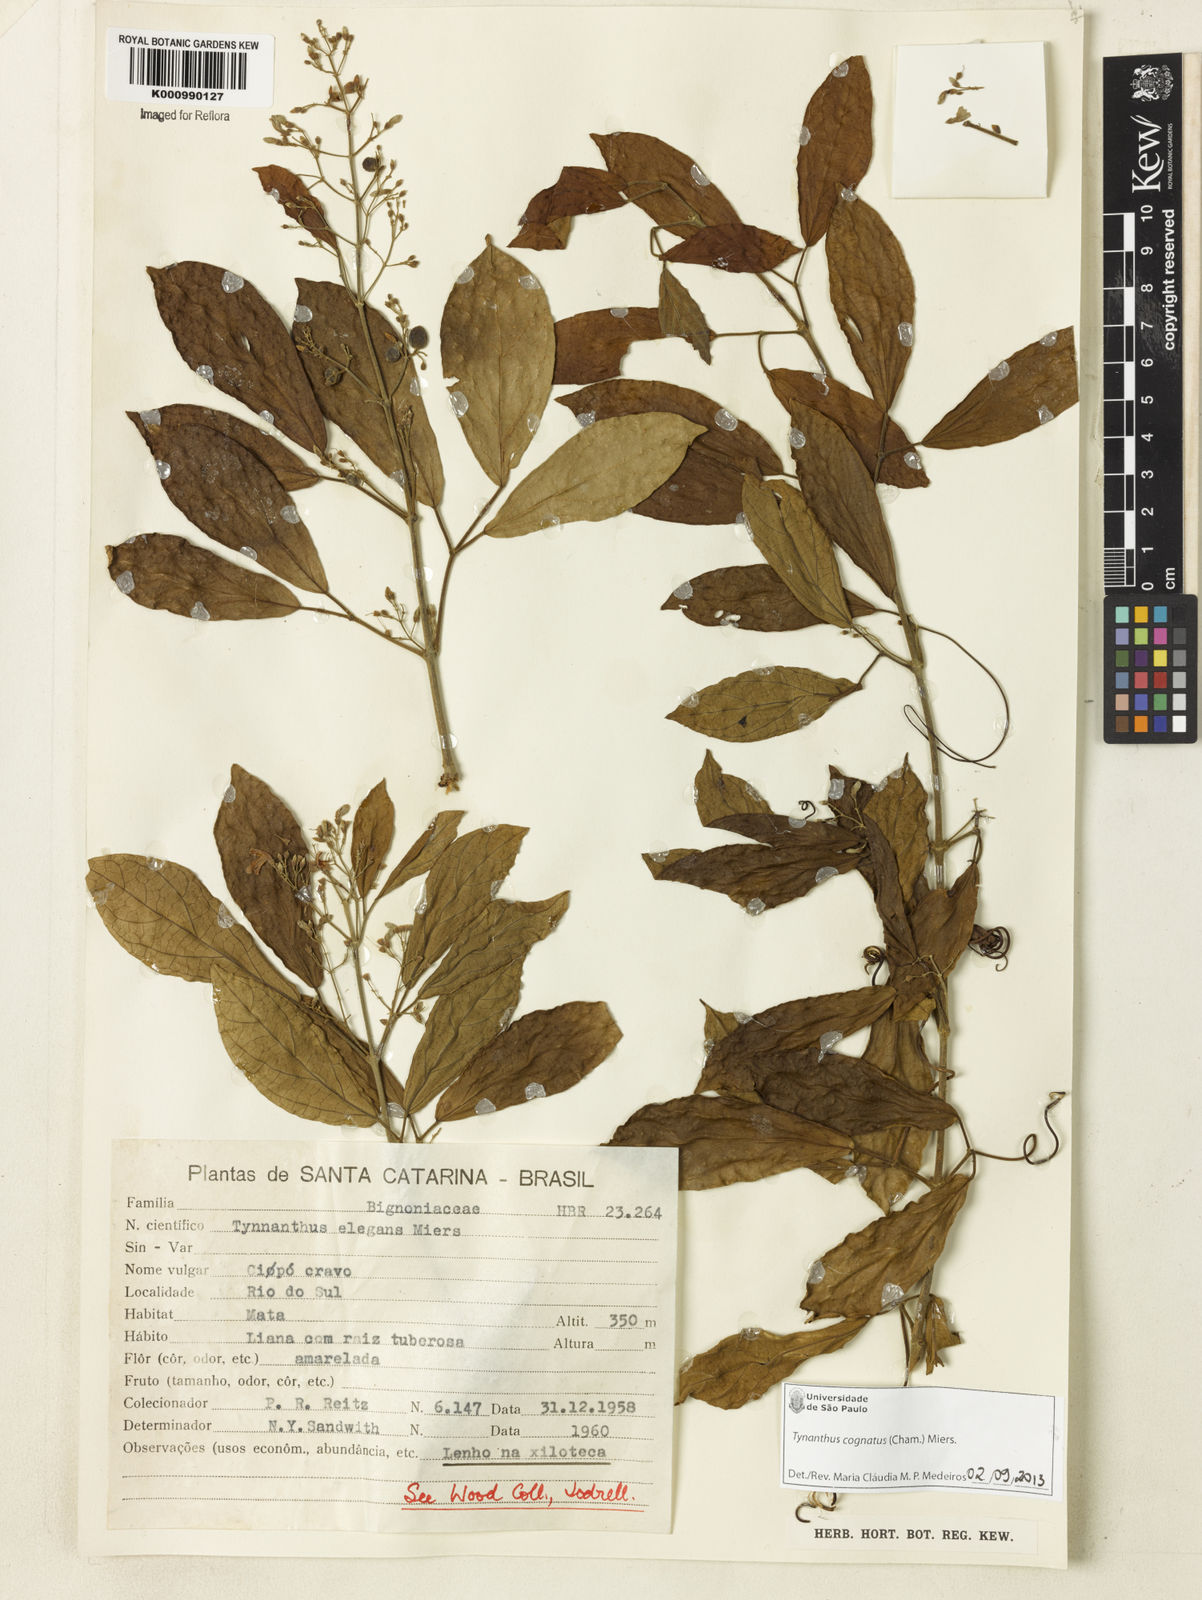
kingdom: Plantae
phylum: Tracheophyta
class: Magnoliopsida
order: Lamiales
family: Bignoniaceae
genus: Tynanthus
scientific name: Tynanthus cognatus
